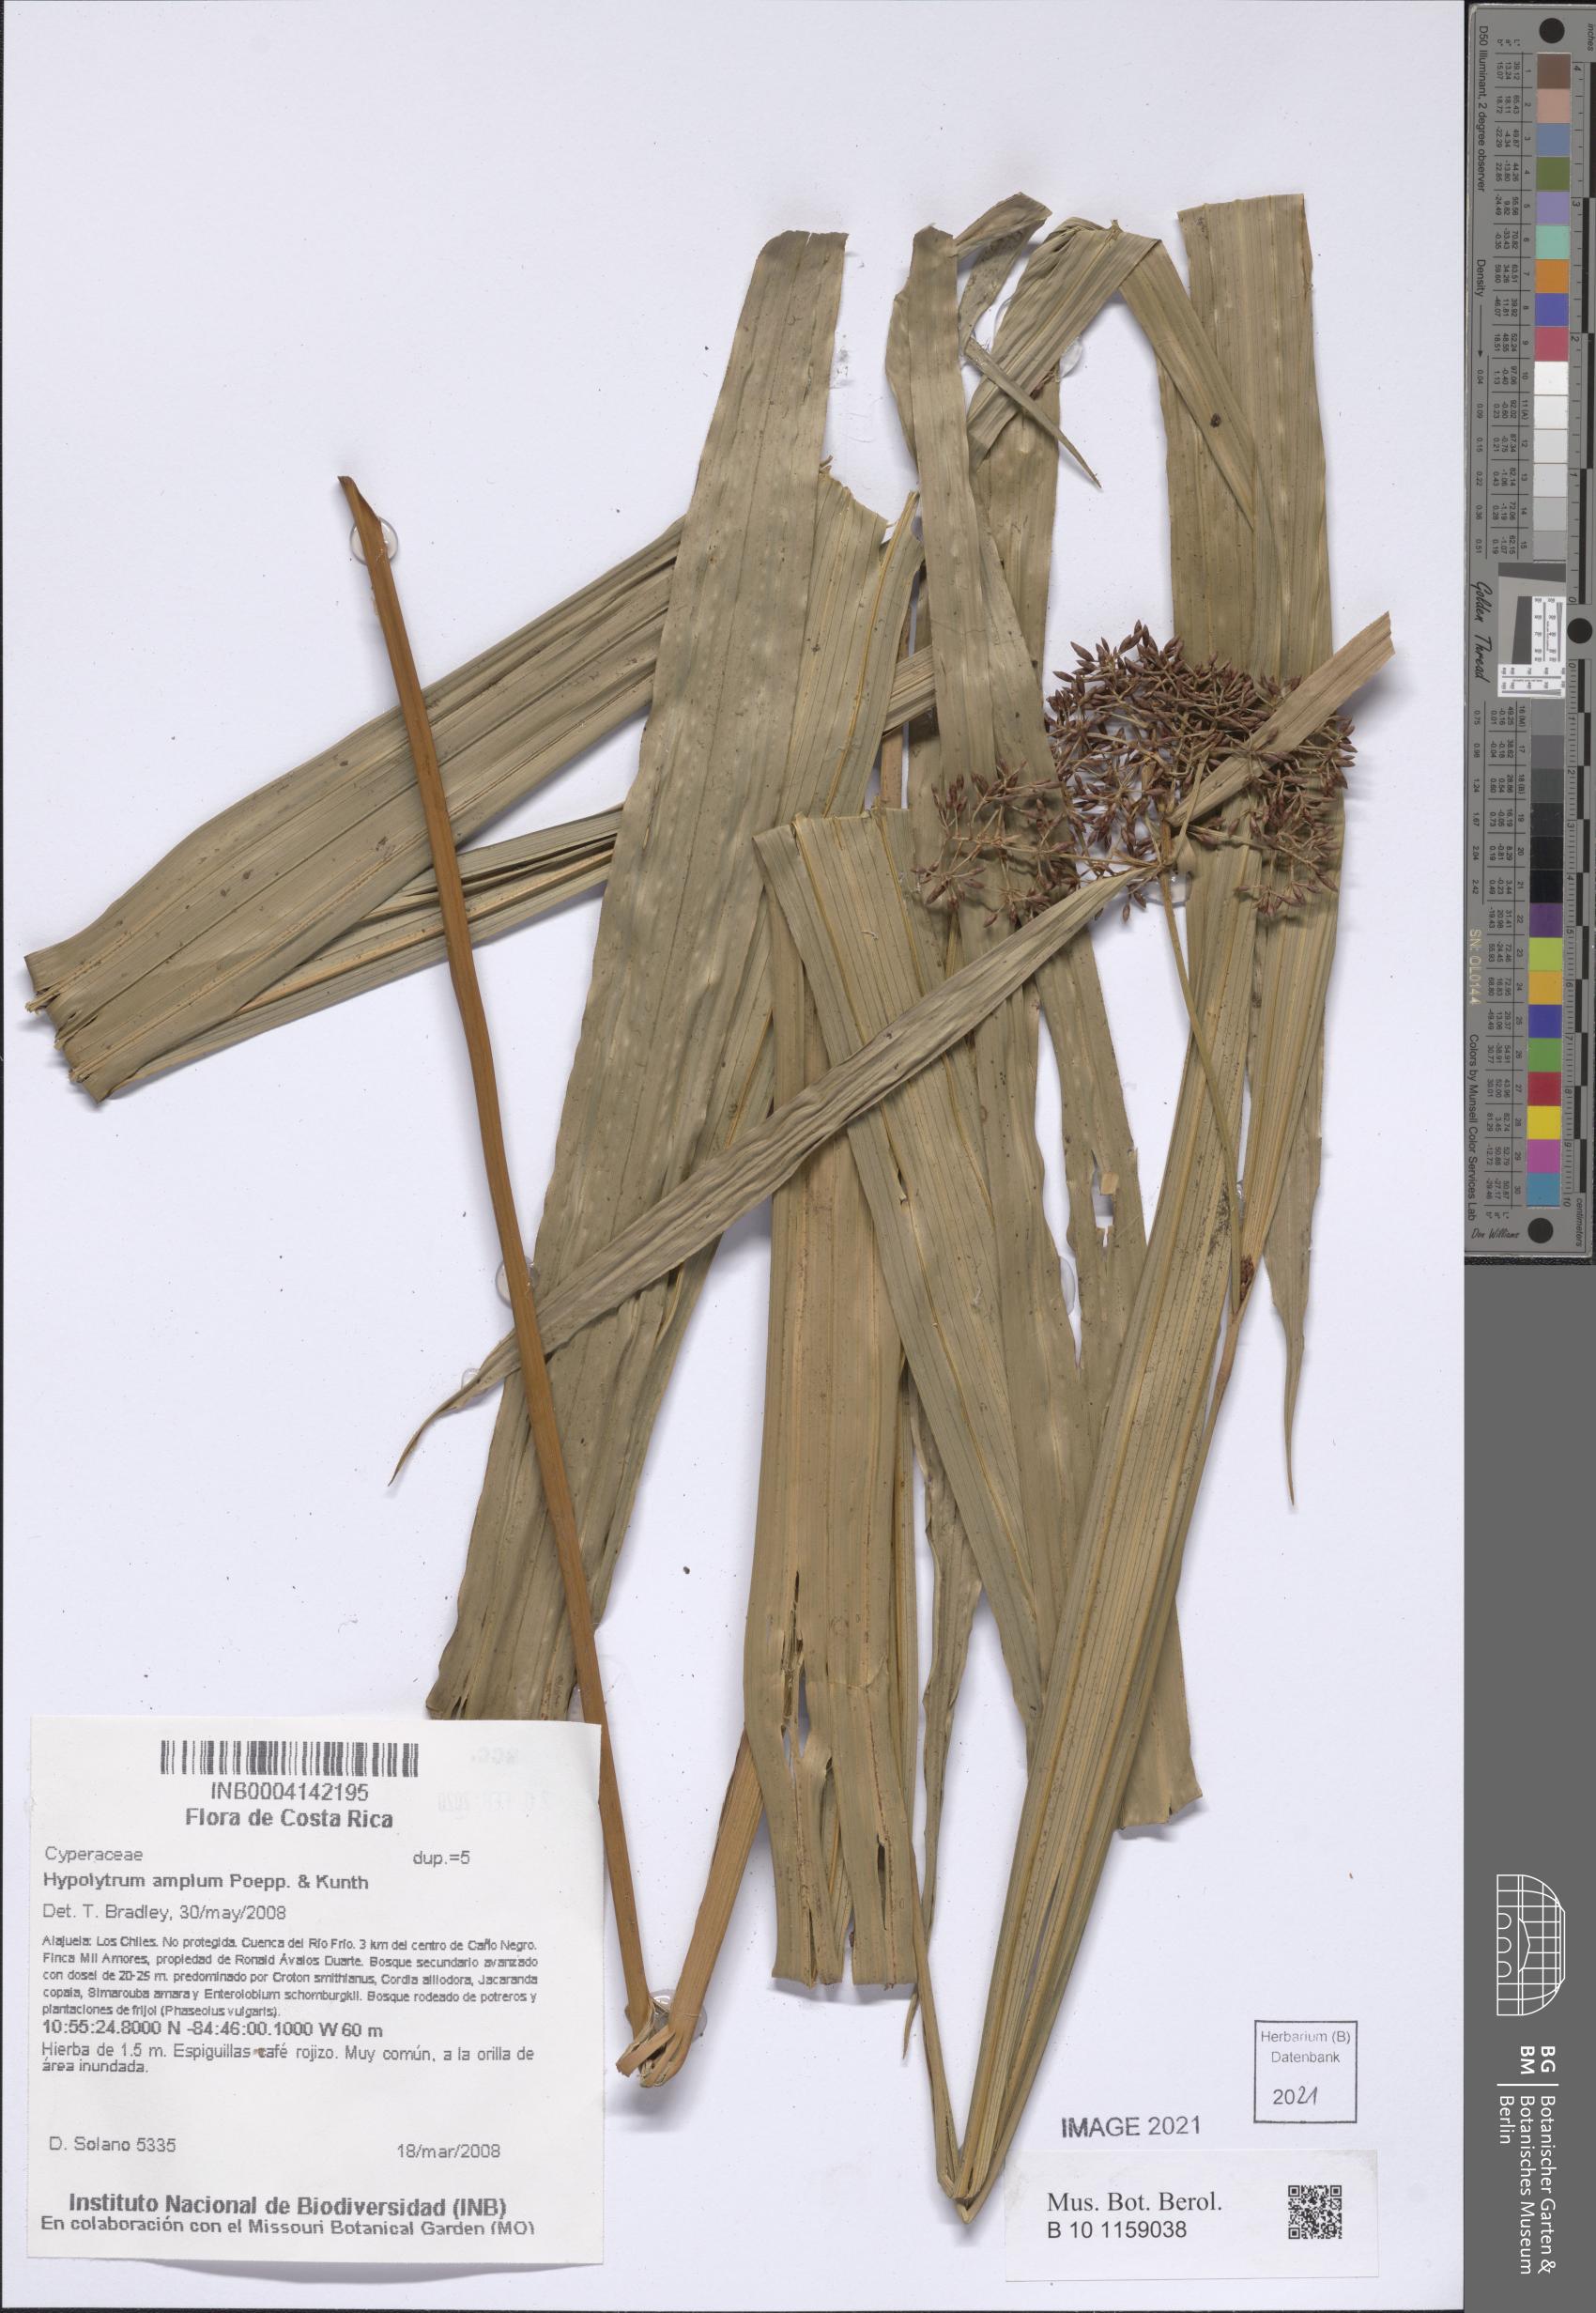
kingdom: Plantae
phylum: Tracheophyta
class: Liliopsida
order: Poales
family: Cyperaceae
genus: Hypolytrum
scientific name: Hypolytrum amplum
